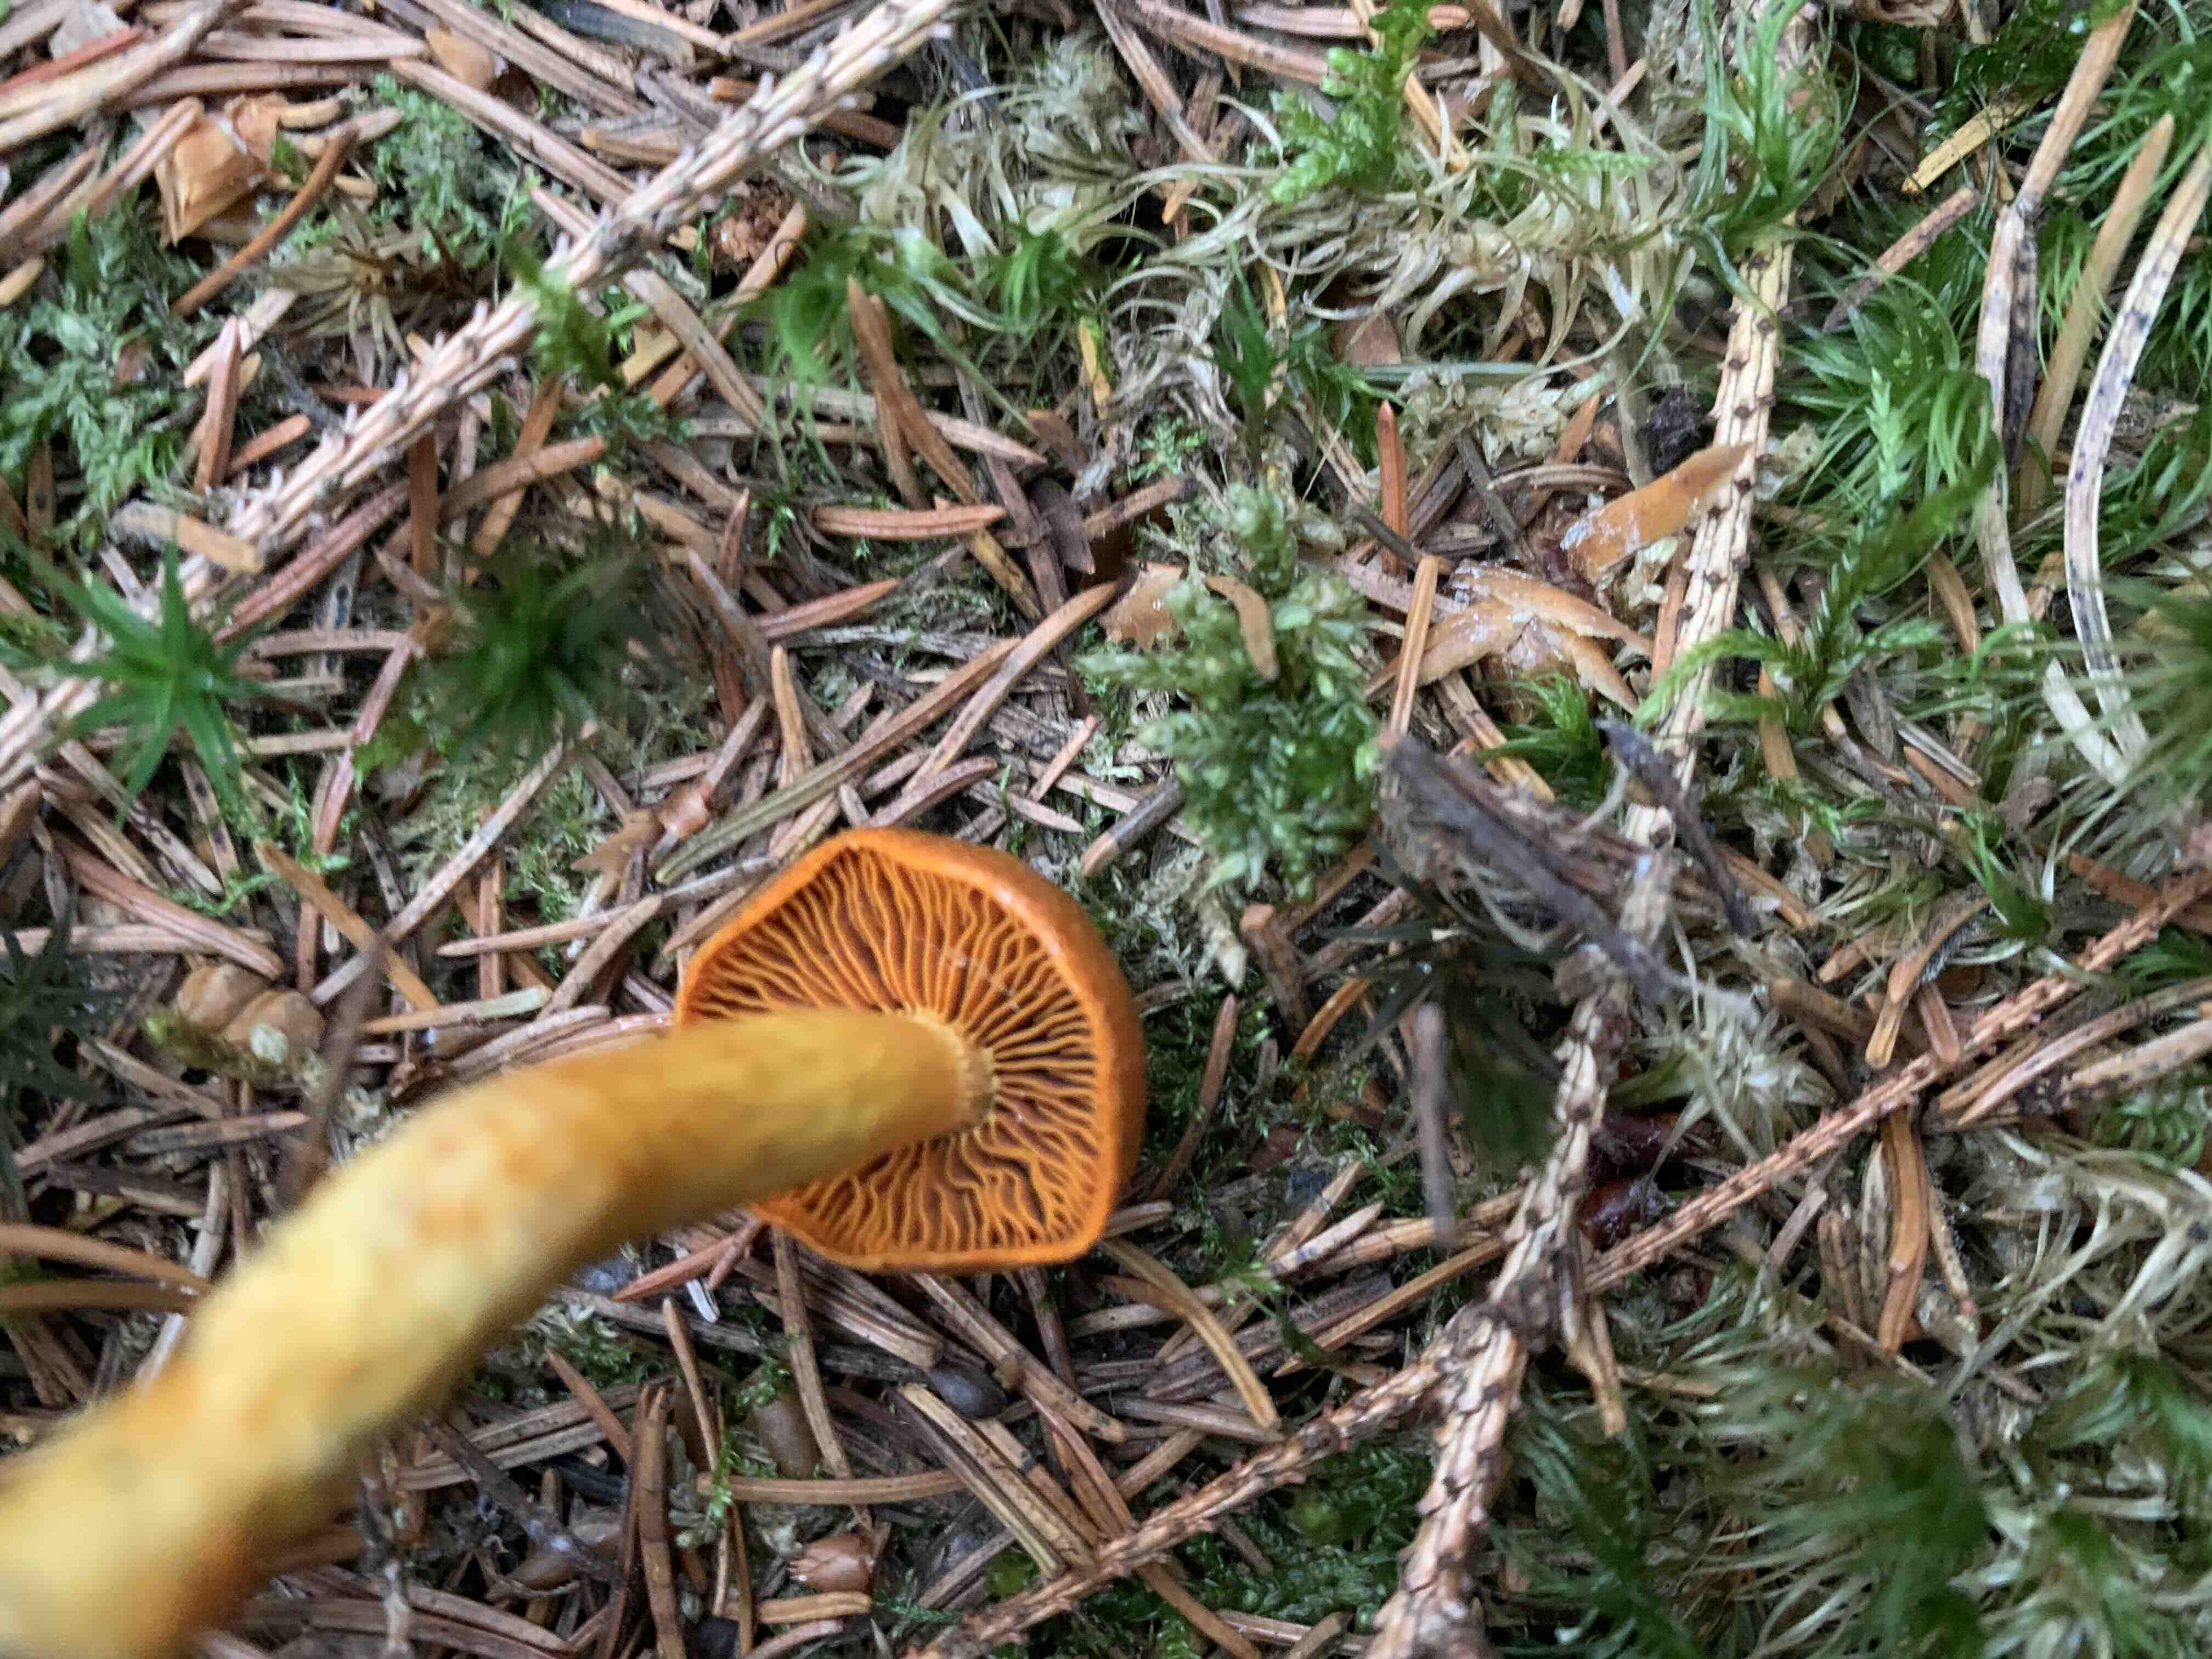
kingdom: Fungi
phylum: Basidiomycota
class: Agaricomycetes
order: Agaricales
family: Cortinariaceae
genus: Cortinarius
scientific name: Cortinarius malicorius
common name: grønkødet slørhat
